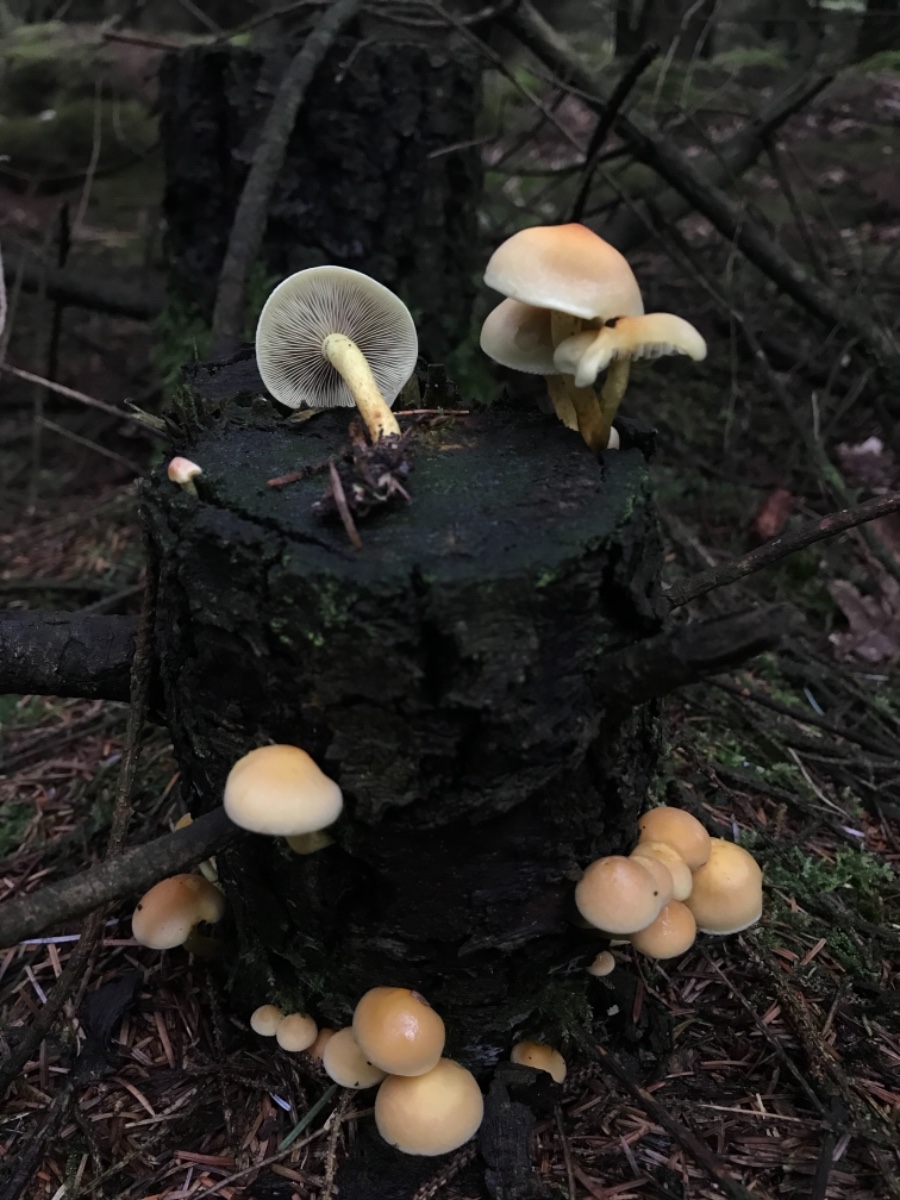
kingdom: Fungi
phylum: Basidiomycota
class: Agaricomycetes
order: Agaricales
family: Strophariaceae
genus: Hypholoma
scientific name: Hypholoma fasciculare
